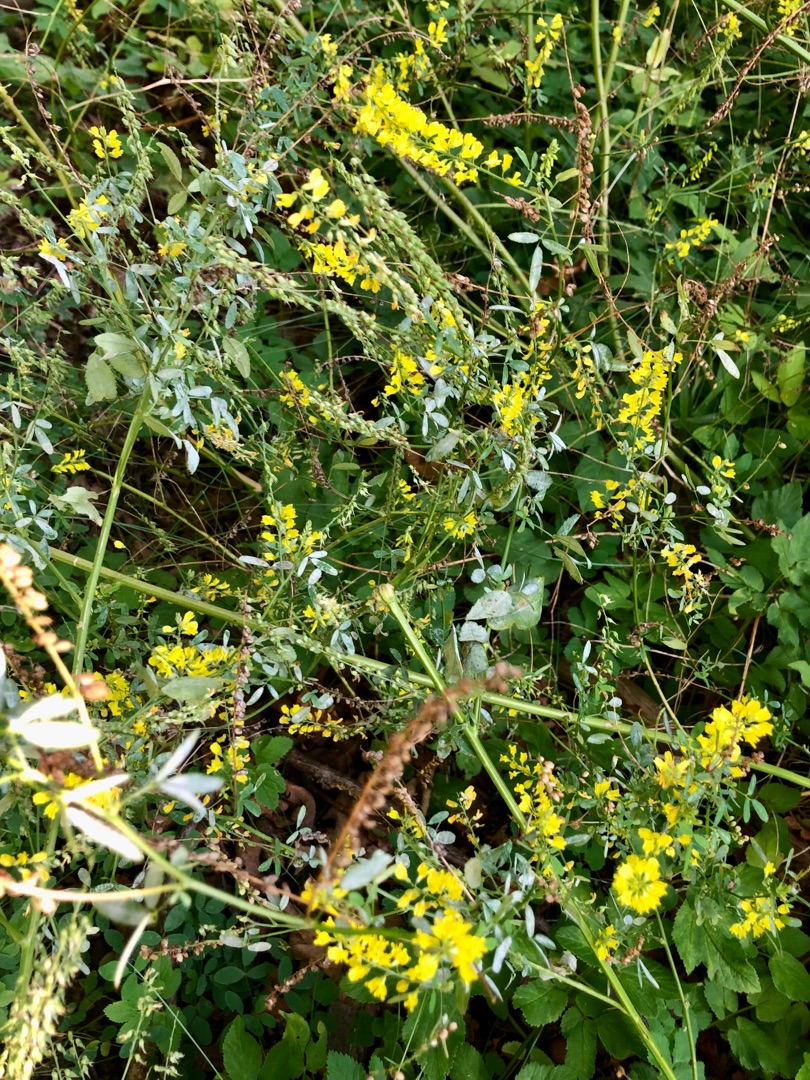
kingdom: Plantae
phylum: Tracheophyta
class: Magnoliopsida
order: Fabales
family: Fabaceae
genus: Melilotus
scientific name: Melilotus officinalis
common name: Mark-stenkløver
